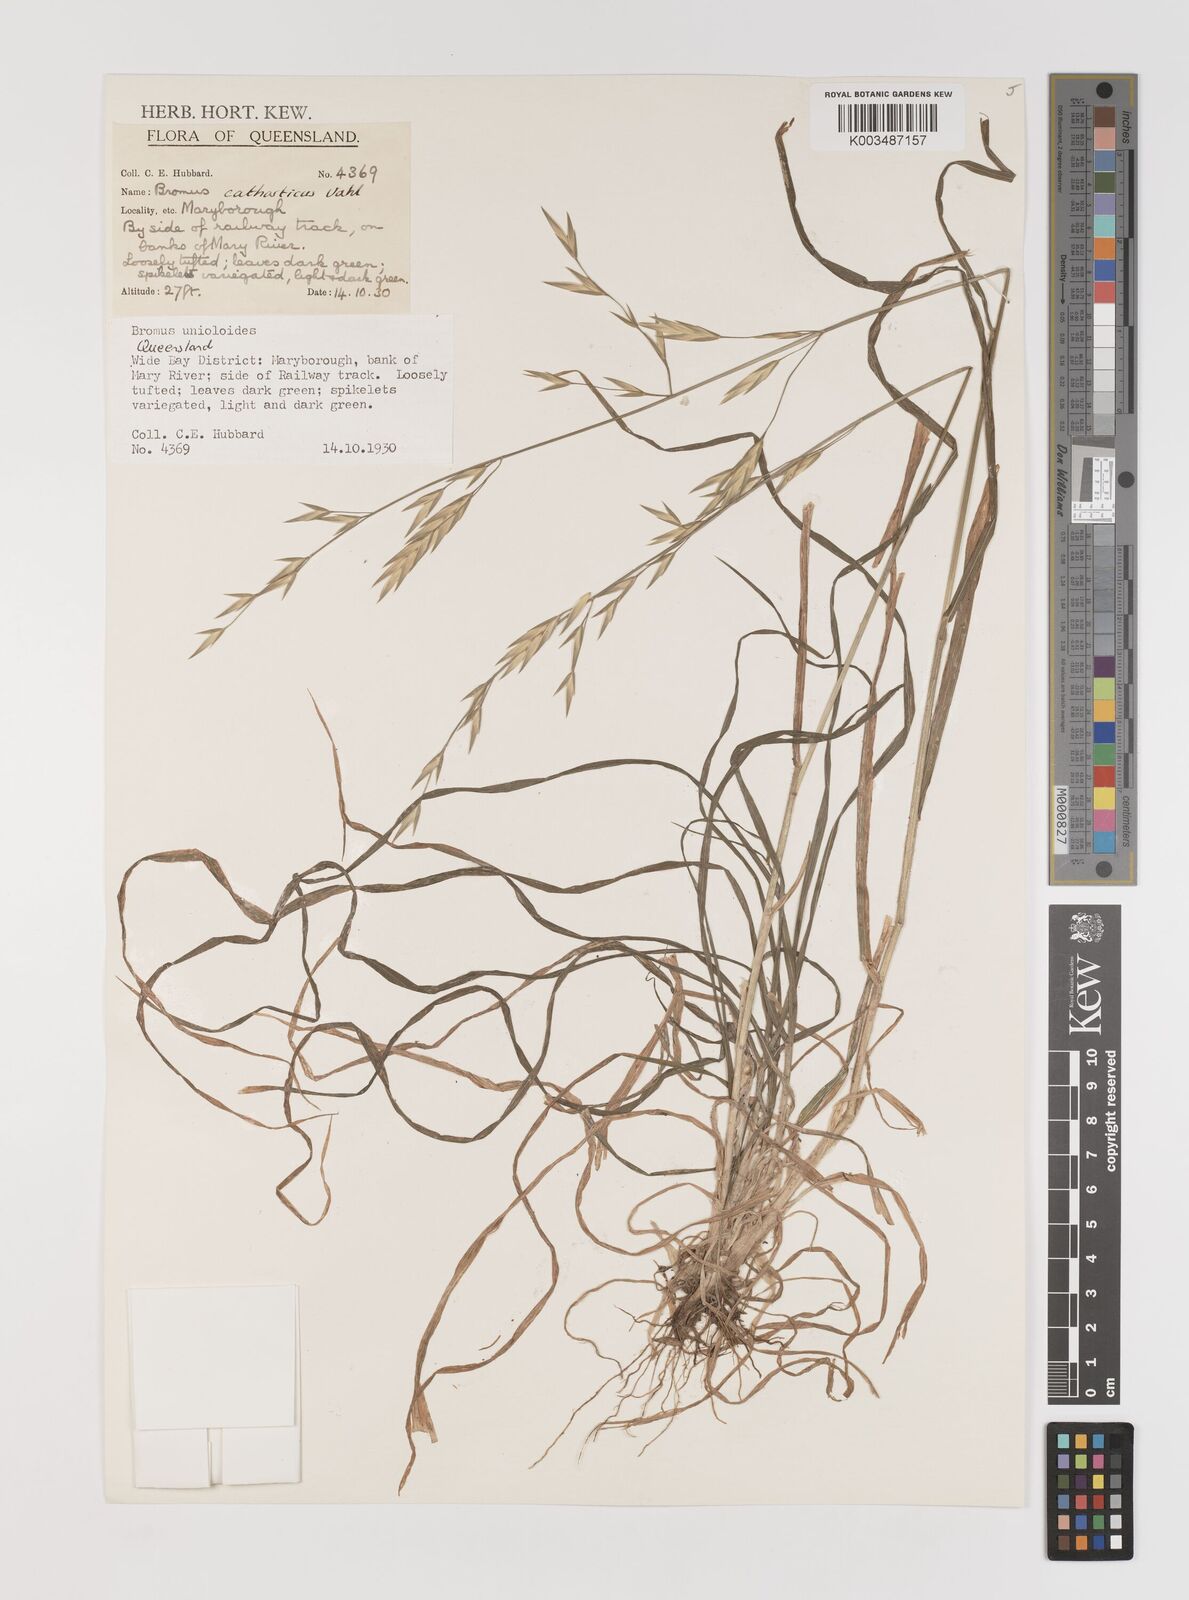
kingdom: Plantae
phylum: Tracheophyta
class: Liliopsida
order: Poales
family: Poaceae
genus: Bromus
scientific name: Bromus catharticus
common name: Rescuegrass
